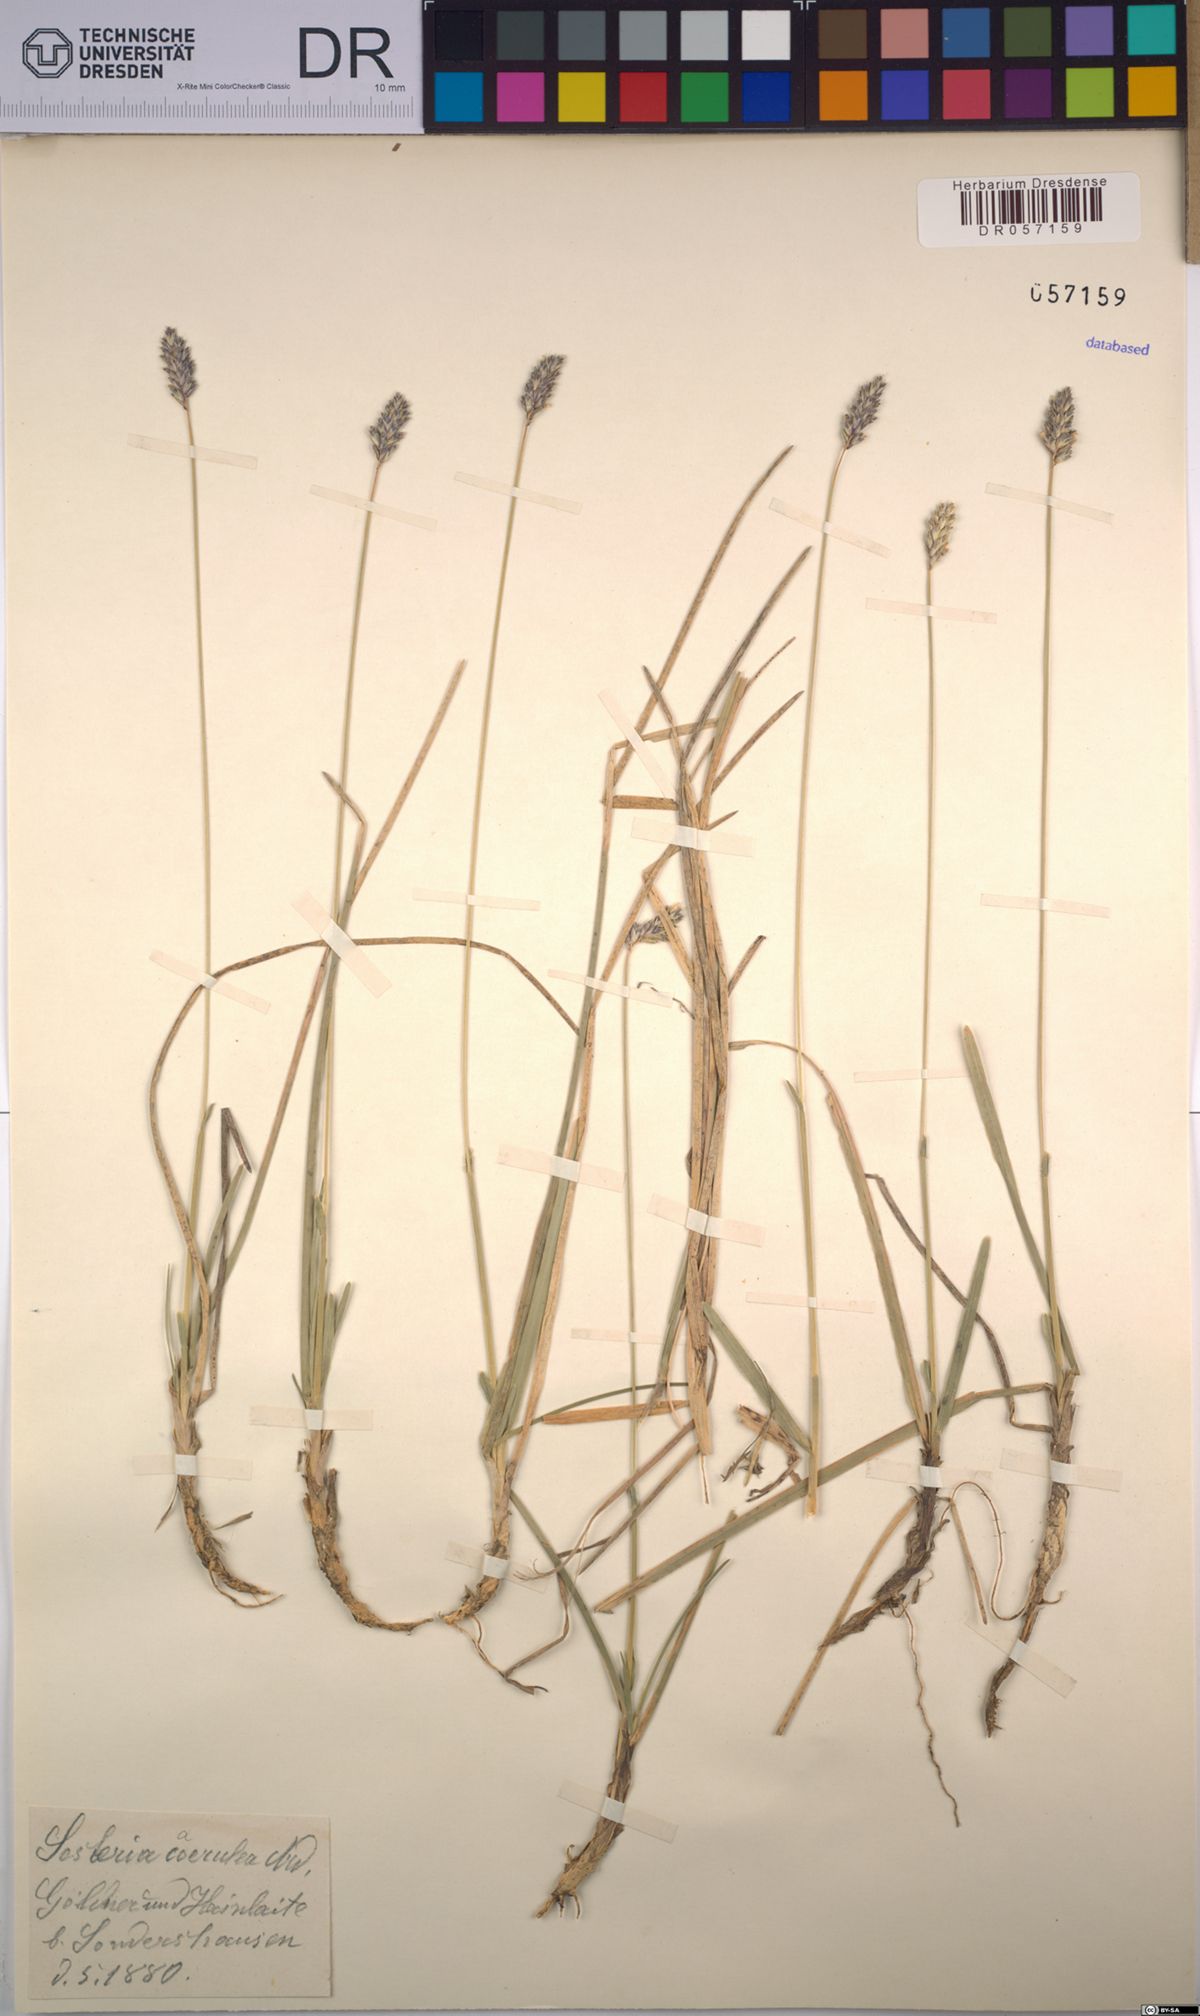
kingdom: Plantae
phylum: Tracheophyta
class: Liliopsida
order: Poales
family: Poaceae
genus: Sesleria
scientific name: Sesleria caerulea
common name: Blue moor-grass
